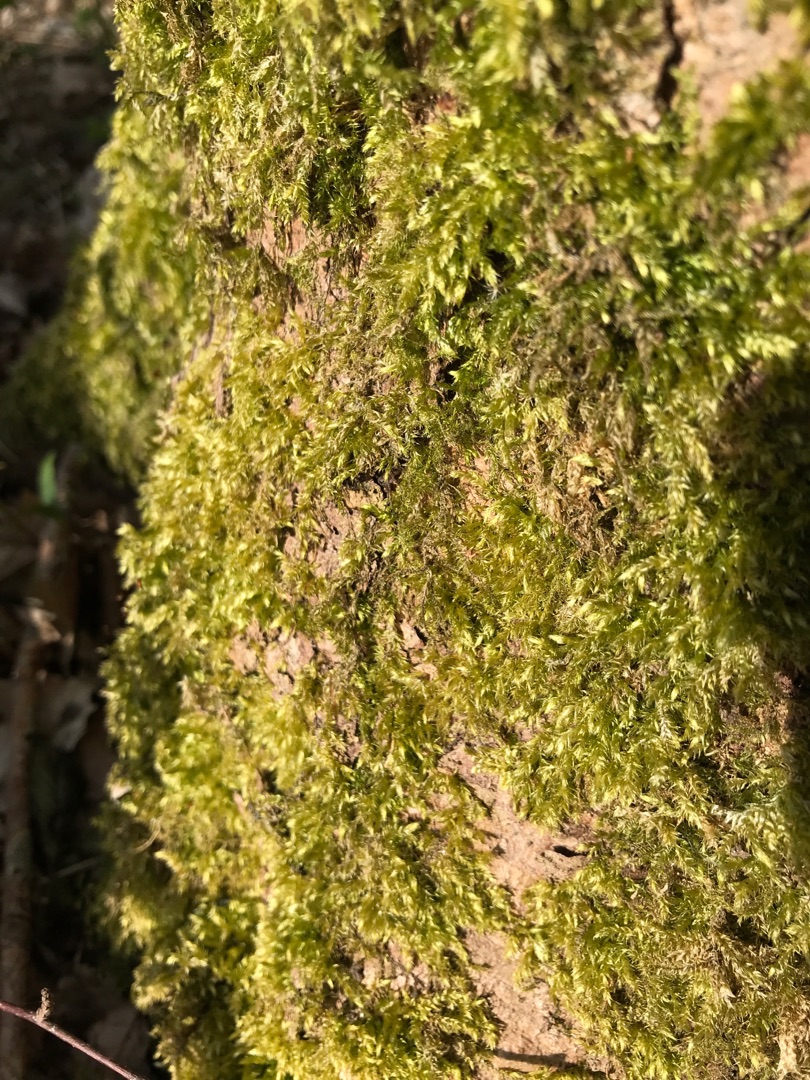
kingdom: Plantae
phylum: Bryophyta
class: Bryopsida
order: Hypnales
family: Brachytheciaceae
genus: Brachythecium
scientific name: Brachythecium rutabulum
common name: Almindelig kortkapsel
